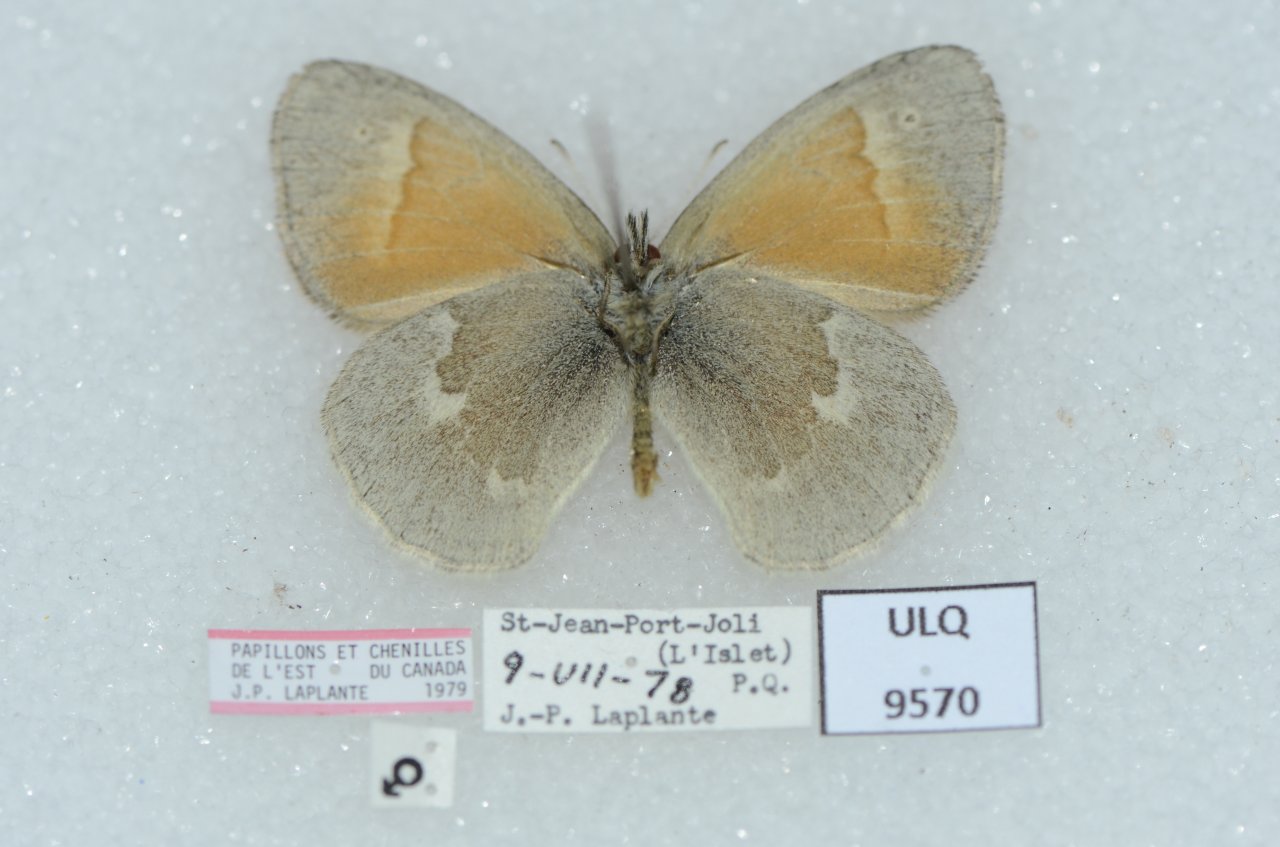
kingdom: Animalia
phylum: Arthropoda
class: Insecta
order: Lepidoptera
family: Nymphalidae
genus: Coenonympha
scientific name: Coenonympha tullia
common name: Large Heath
